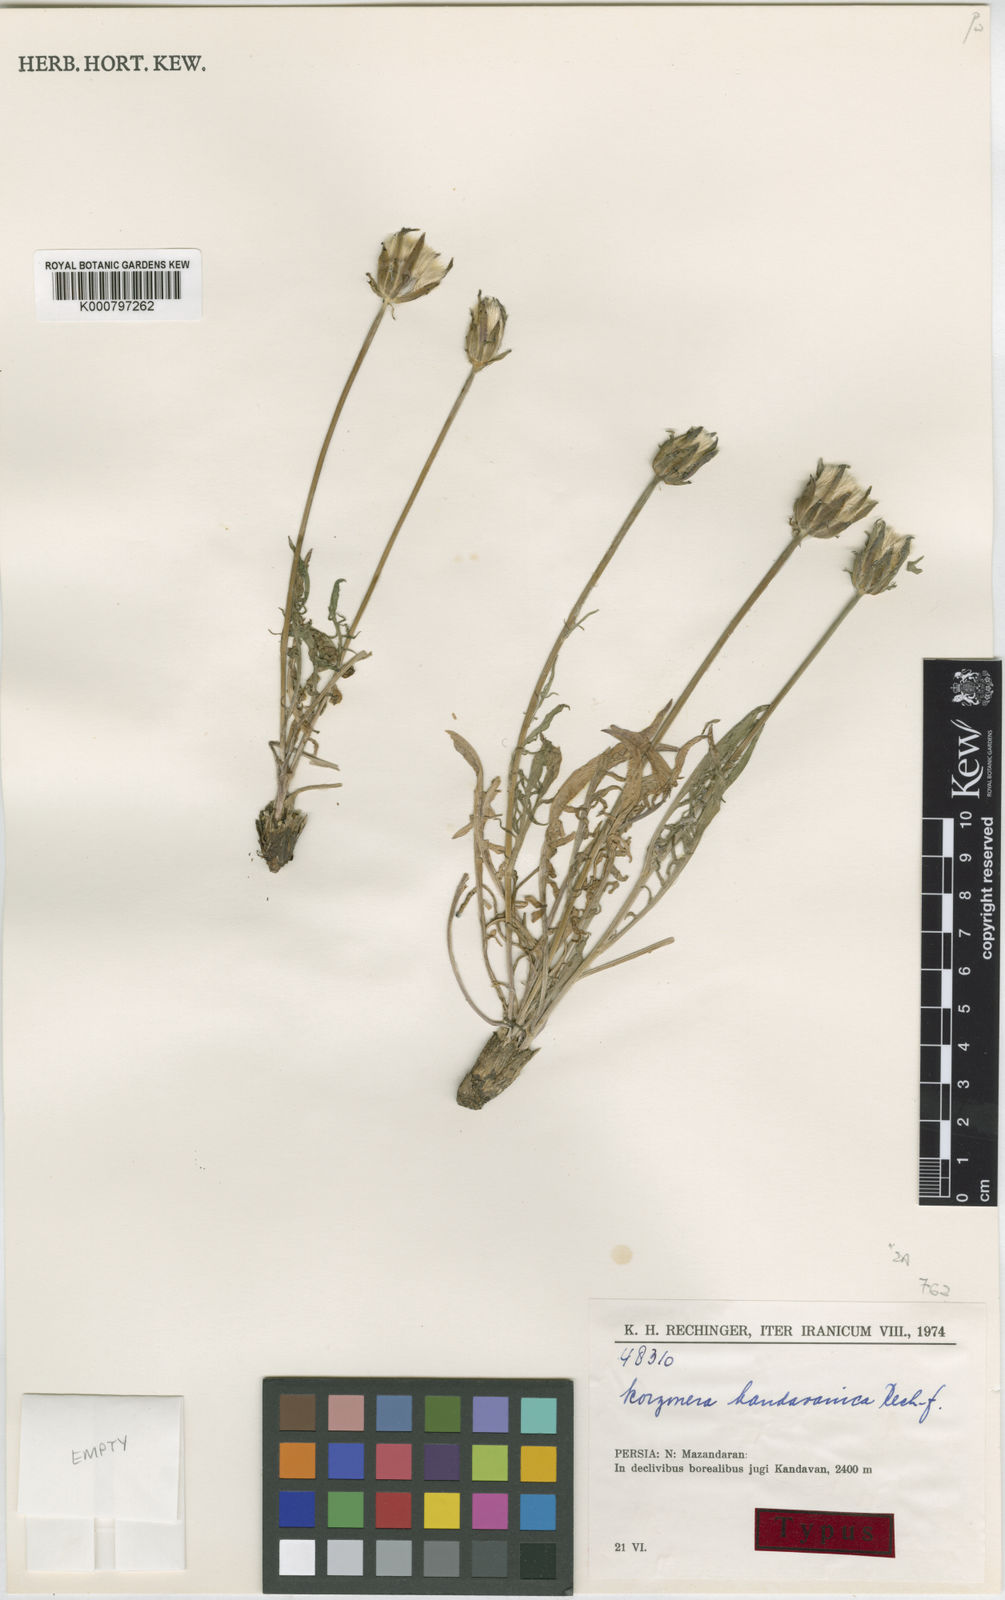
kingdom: Plantae
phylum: Tracheophyta
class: Magnoliopsida
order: Asterales
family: Asteraceae
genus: Scorzonera
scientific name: Scorzonera kandavanica
